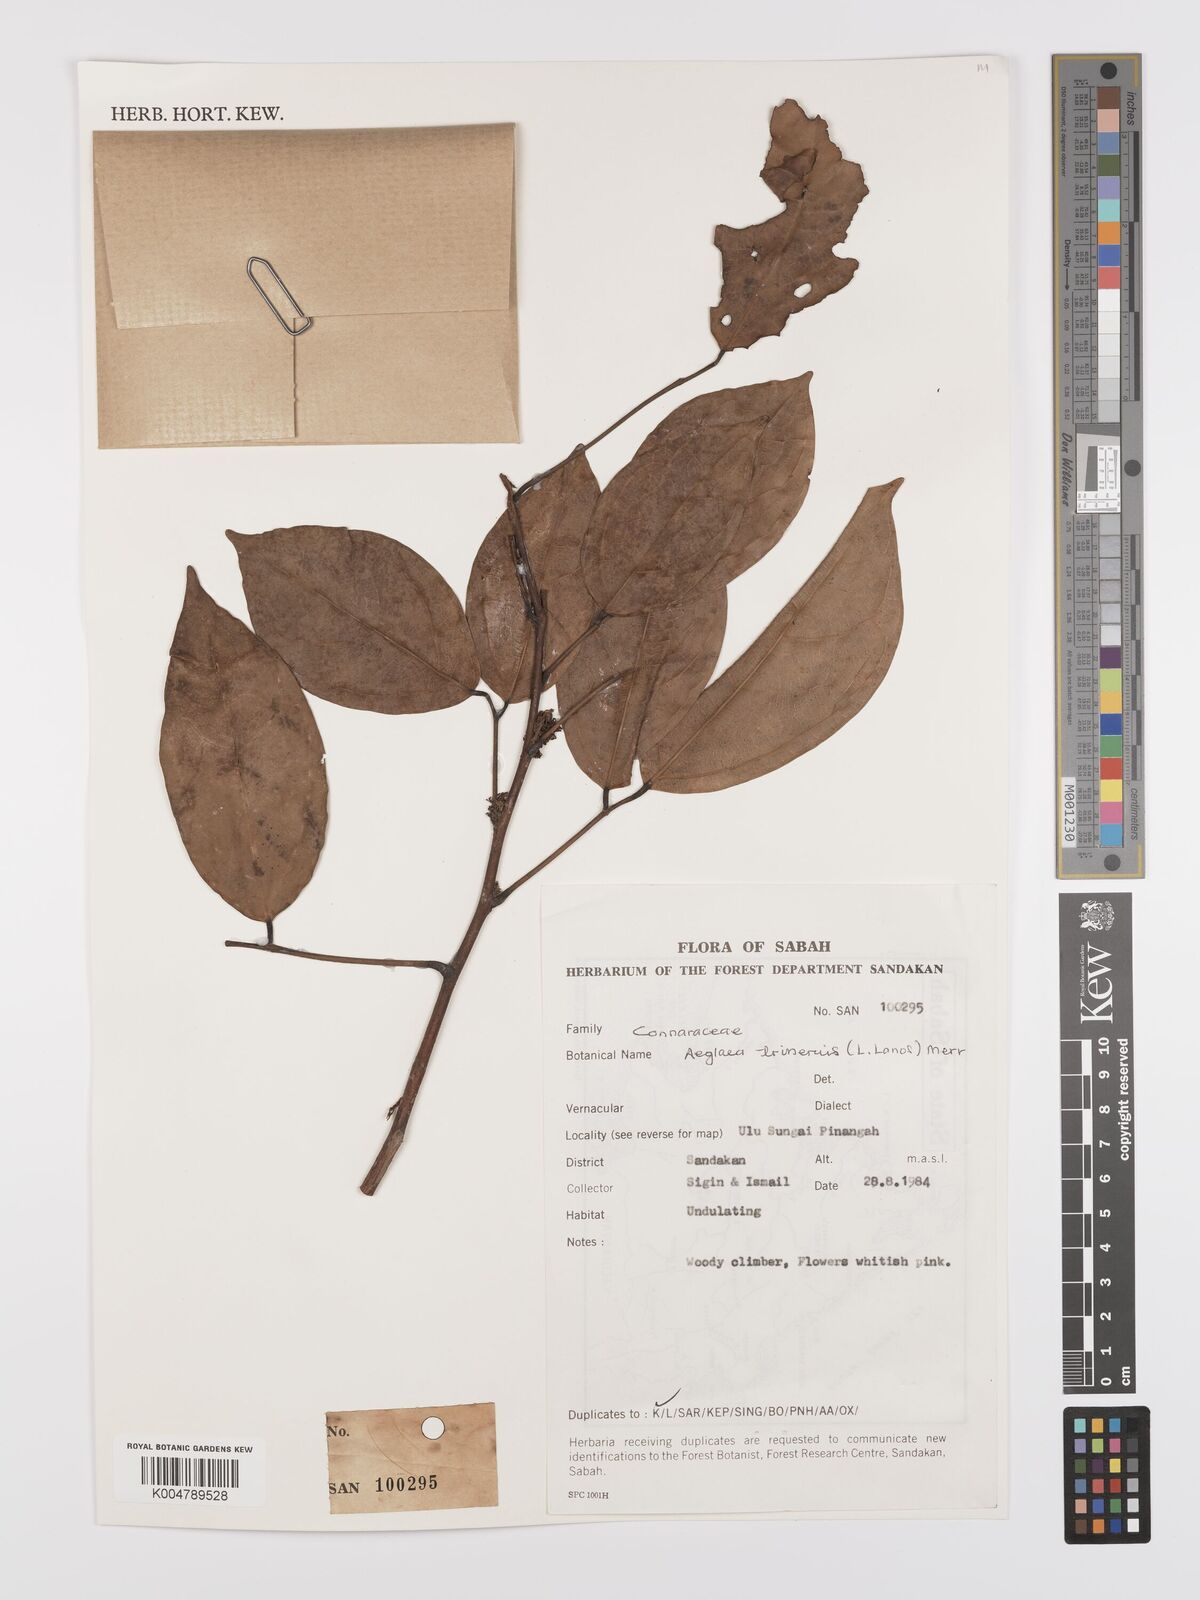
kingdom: Plantae
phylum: Tracheophyta
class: Magnoliopsida
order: Oxalidales
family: Connaraceae
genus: Agelaea
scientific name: Agelaea trinervis
